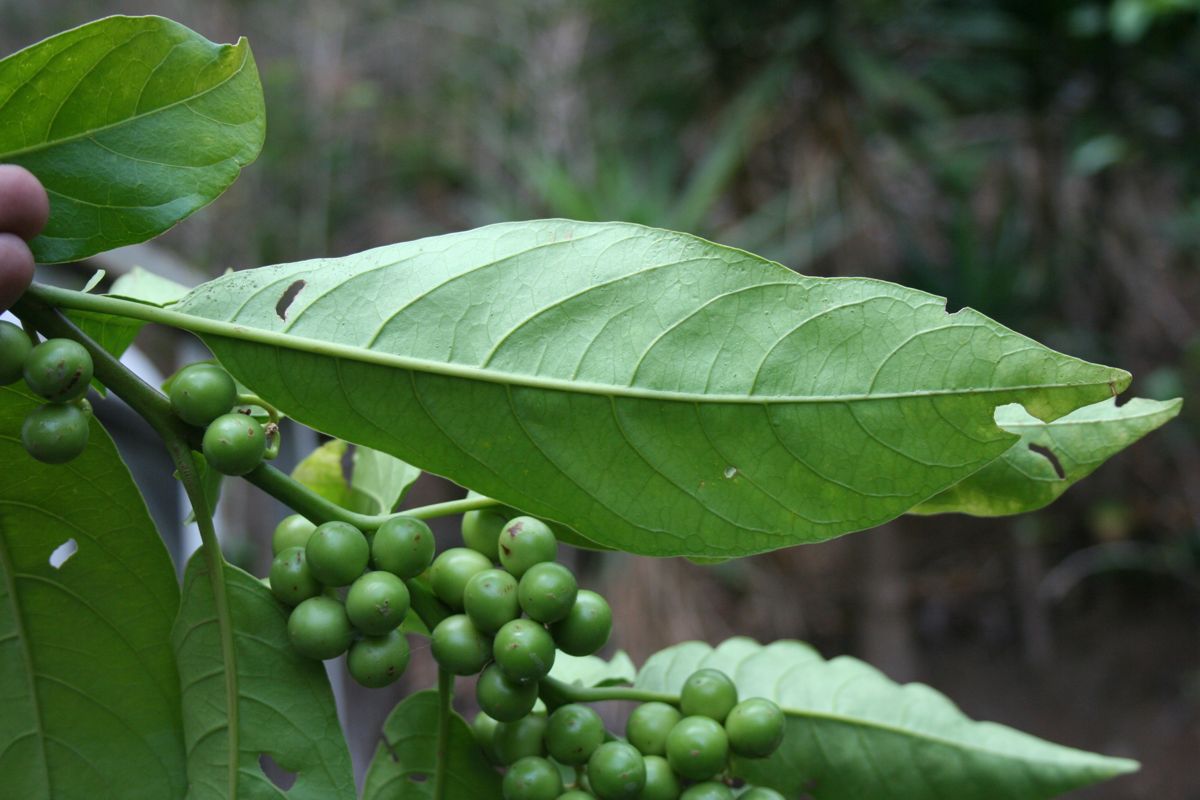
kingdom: Plantae
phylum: Tracheophyta
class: Magnoliopsida
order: Solanales
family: Solanaceae
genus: Solanum
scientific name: Solanum rovirosanum
